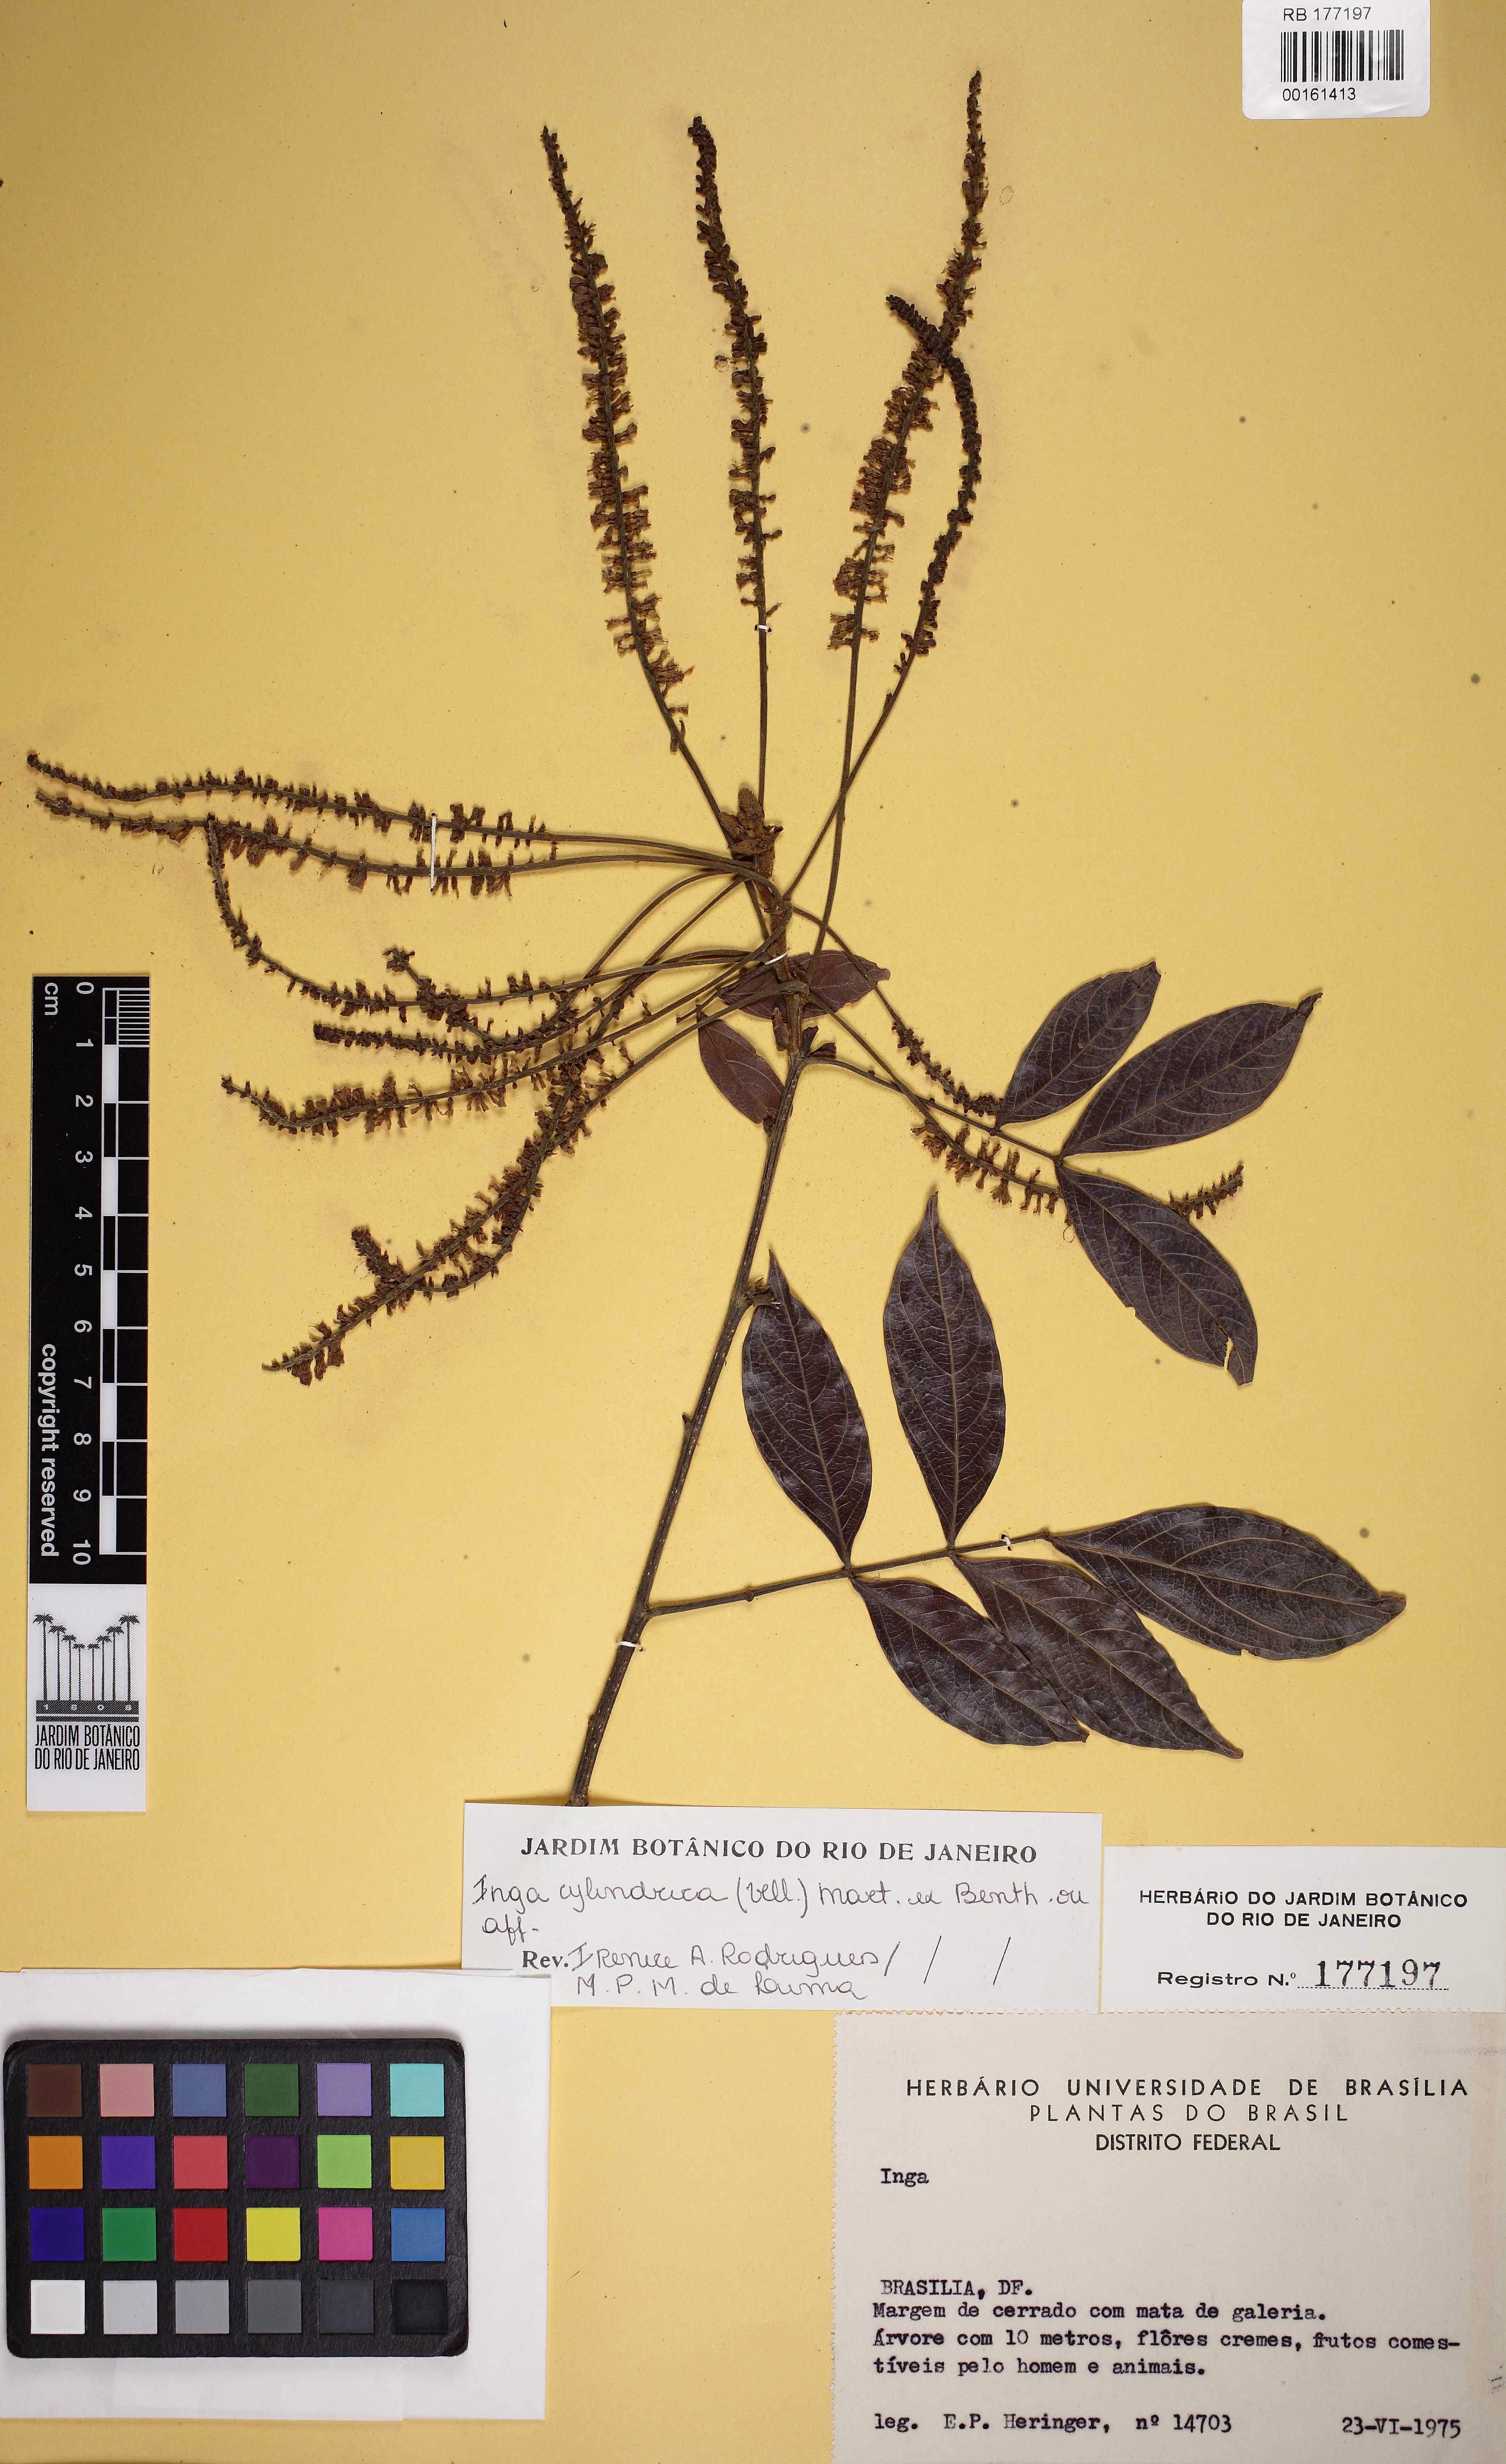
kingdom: Plantae
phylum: Tracheophyta
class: Magnoliopsida
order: Fabales
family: Fabaceae
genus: Inga
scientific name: Inga cylindrica
